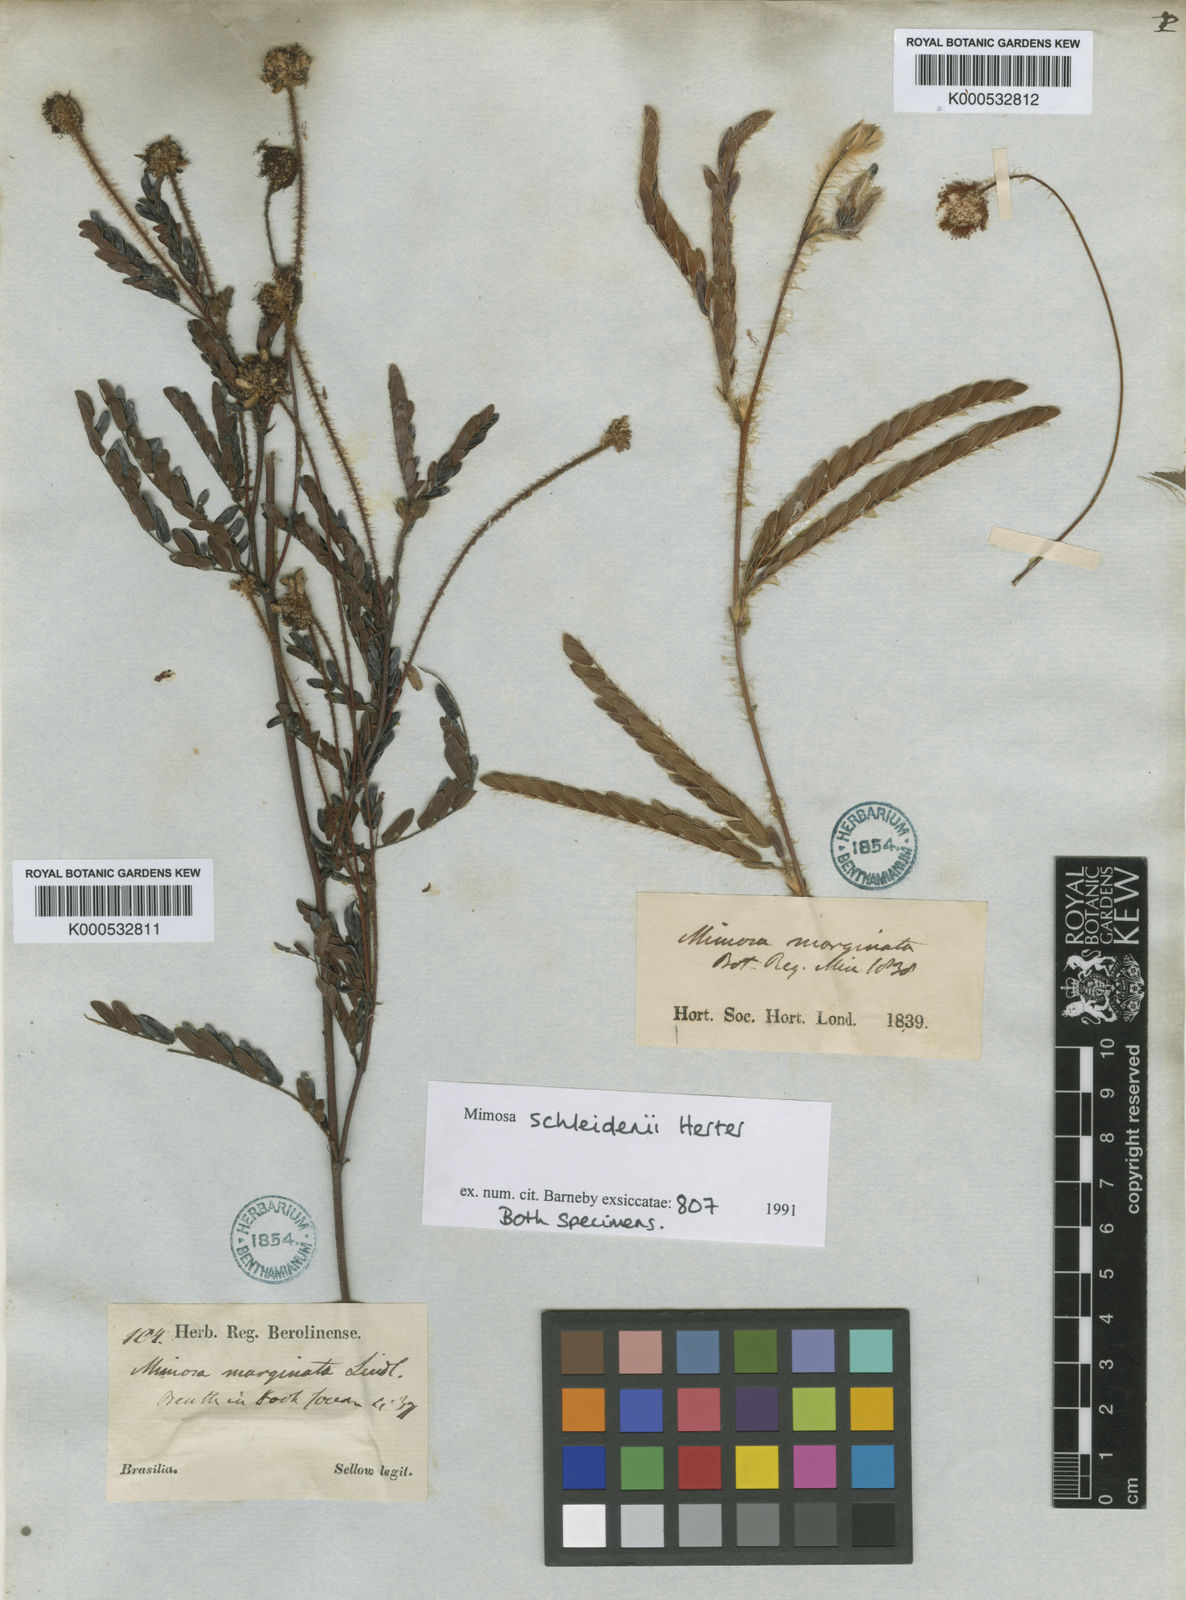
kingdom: Plantae
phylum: Tracheophyta
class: Magnoliopsida
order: Fabales
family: Fabaceae
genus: Mimosa
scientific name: Mimosa schleidenii
